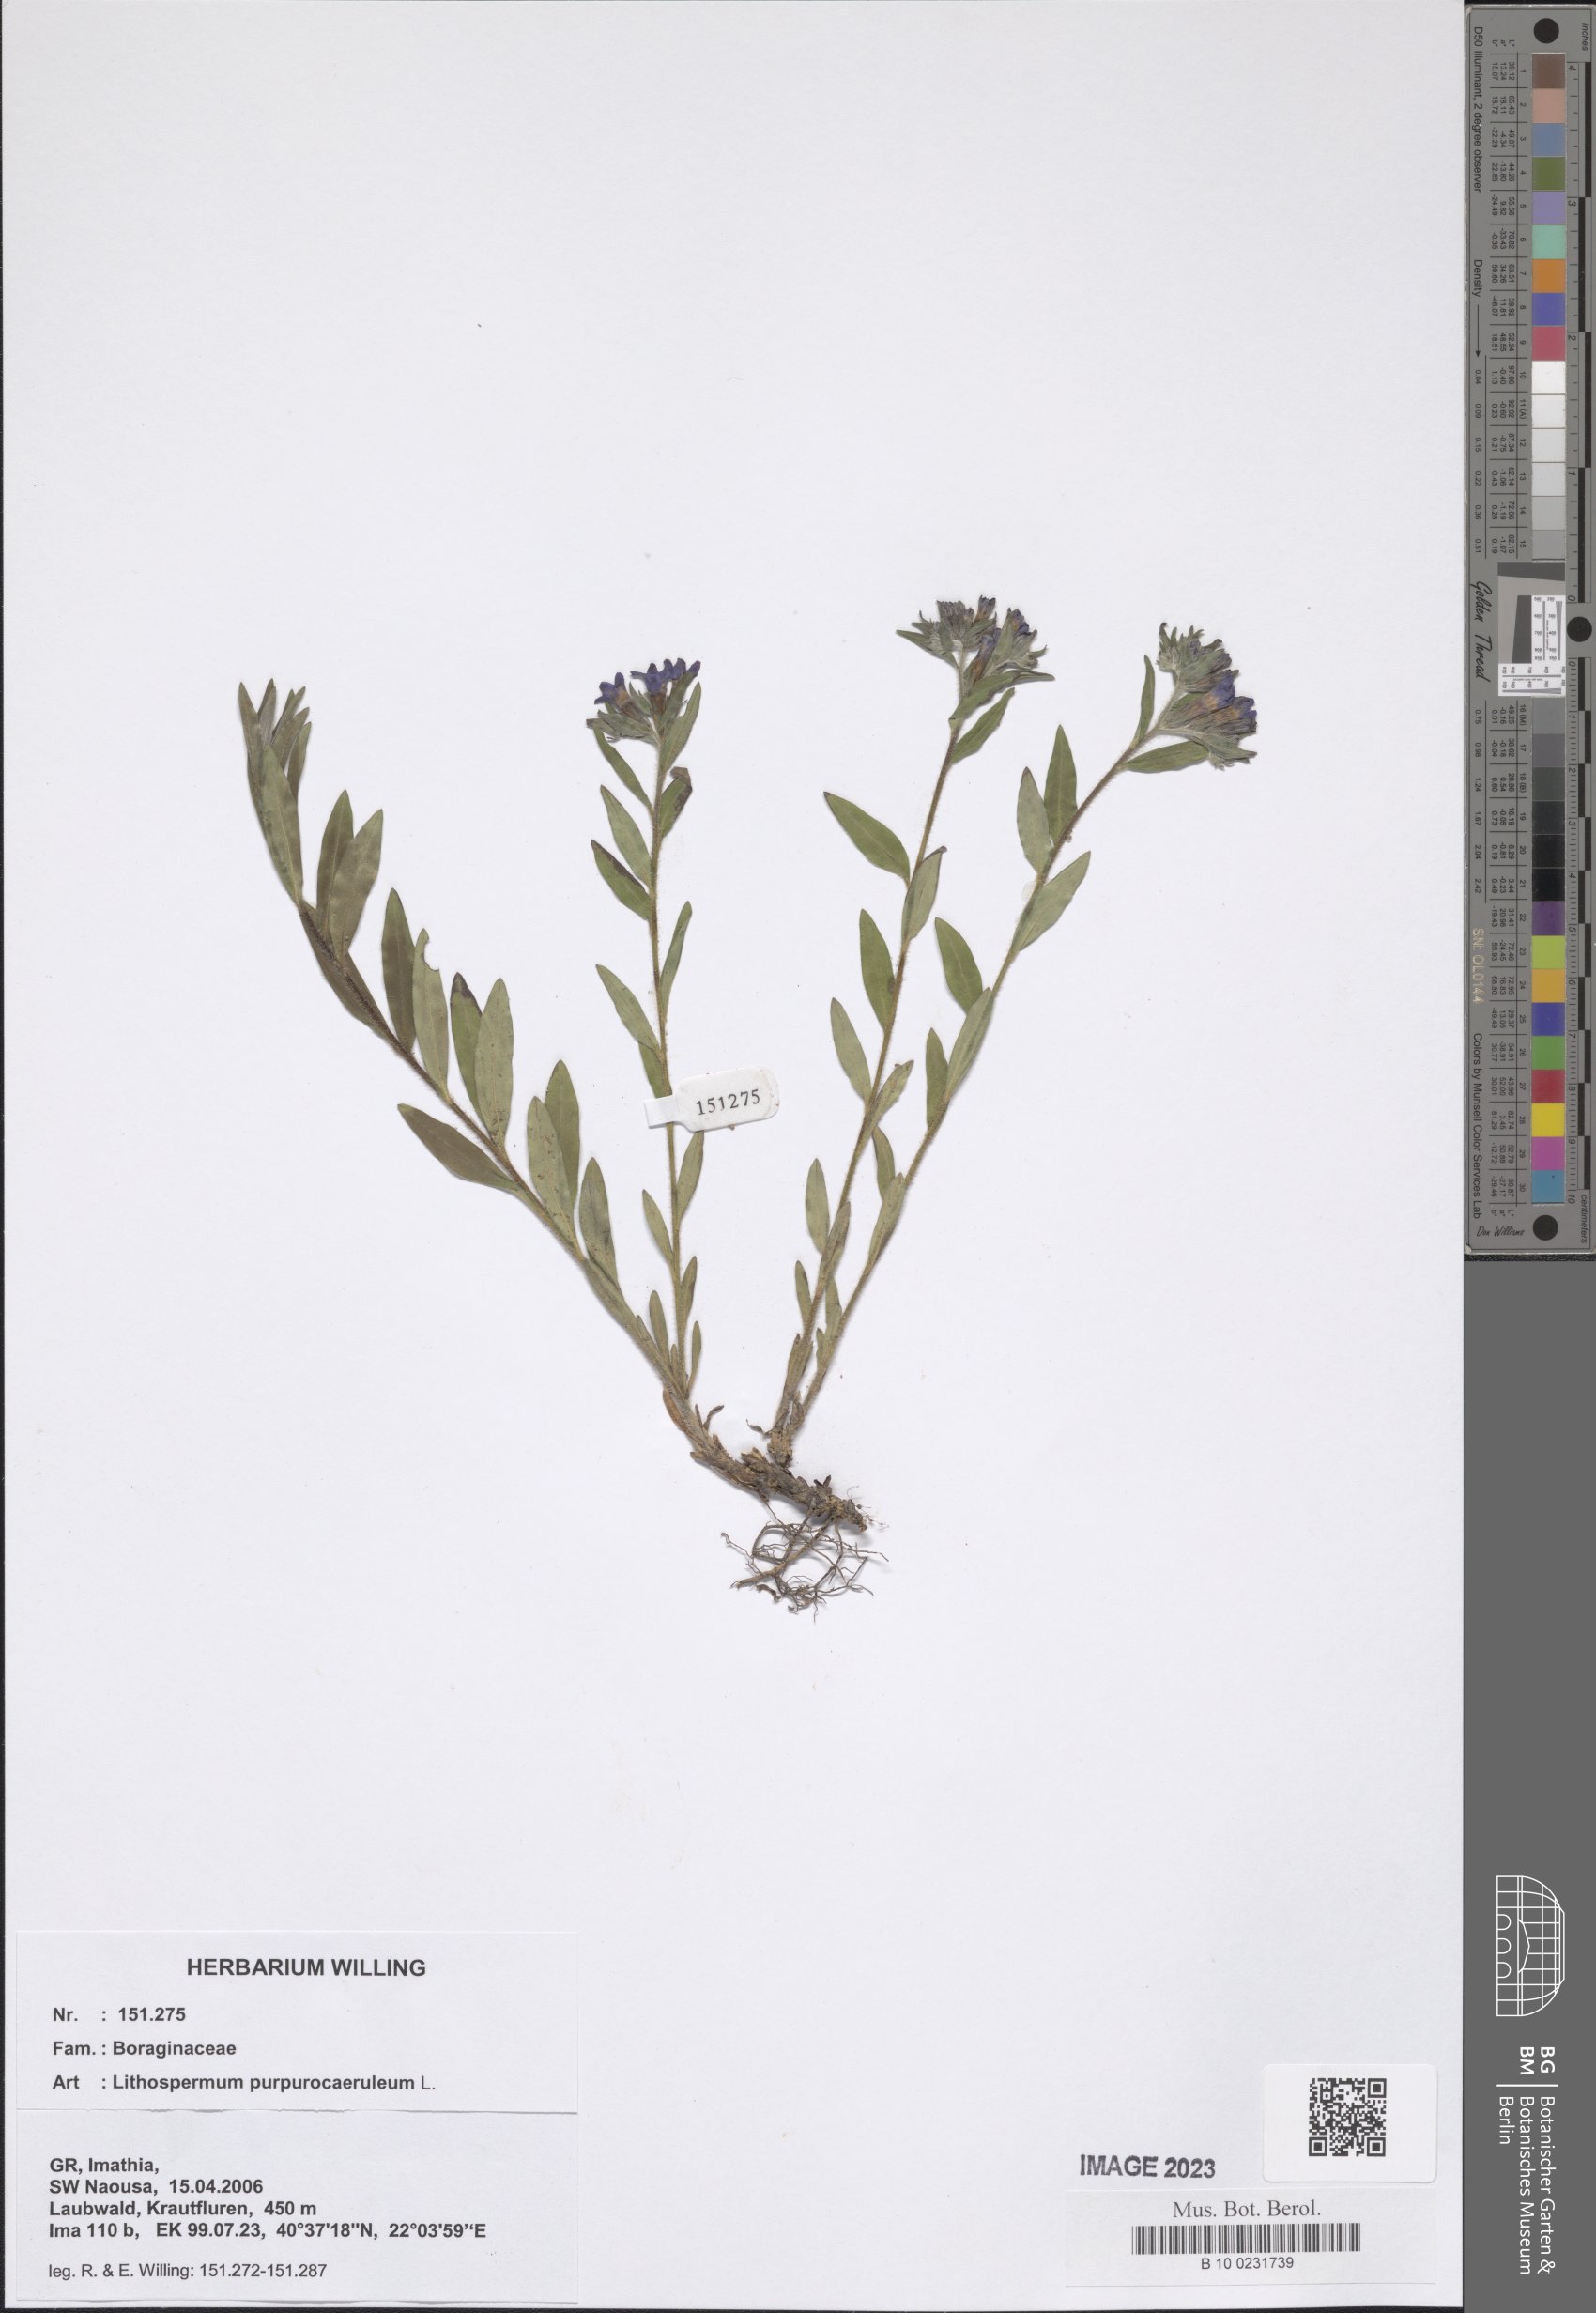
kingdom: Plantae
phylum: Tracheophyta
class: Magnoliopsida
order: Boraginales
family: Boraginaceae
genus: Aegonychon
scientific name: Aegonychon purpurocaeruleum
